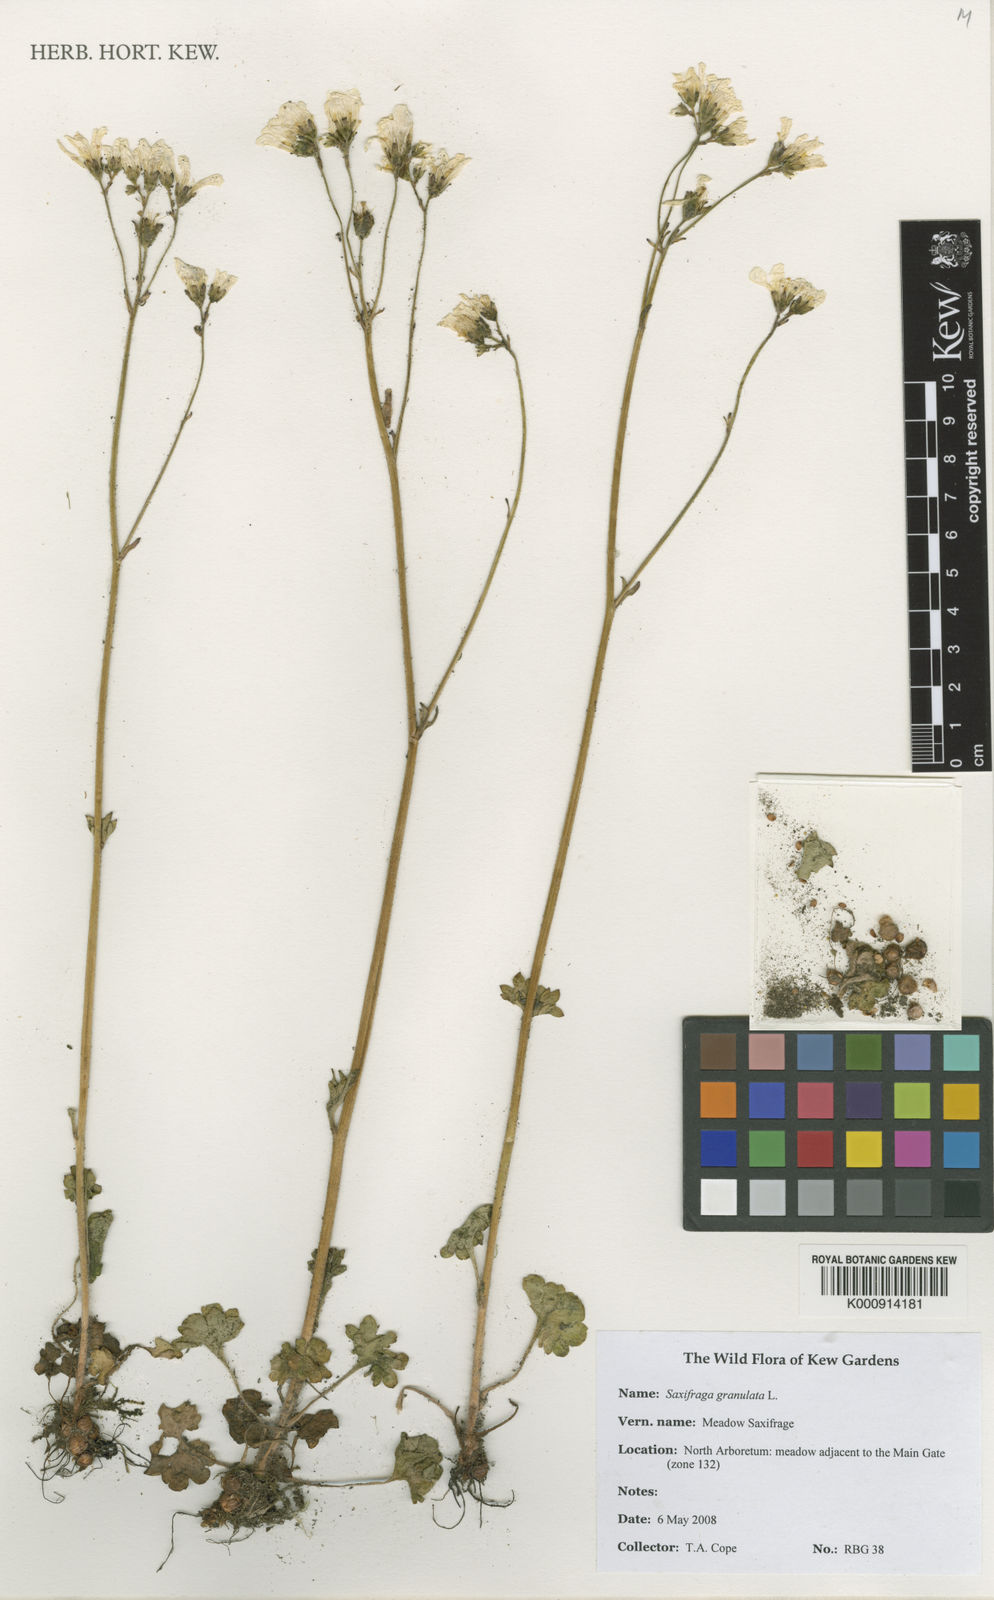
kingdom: Plantae
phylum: Tracheophyta
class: Magnoliopsida
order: Saxifragales
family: Saxifragaceae
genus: Saxifraga
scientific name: Saxifraga granulata
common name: Meadow saxifrage
